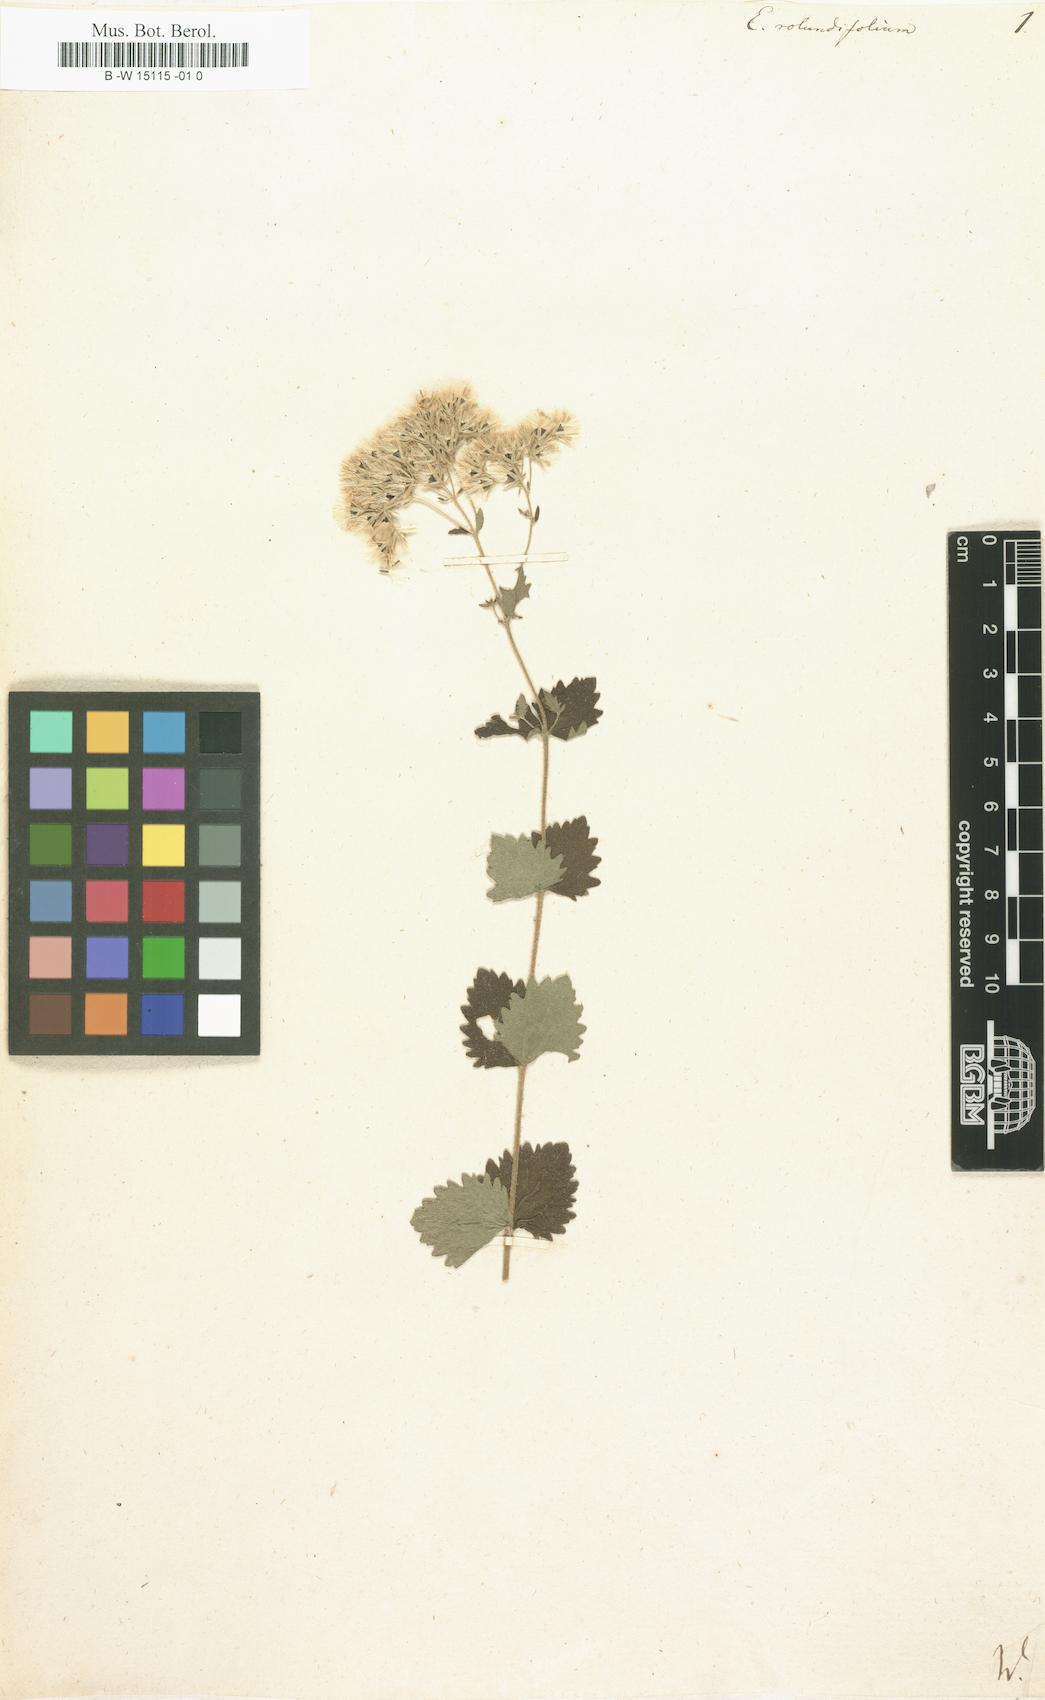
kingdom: Plantae
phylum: Tracheophyta
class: Magnoliopsida
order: Asterales
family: Asteraceae
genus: Eupatorium
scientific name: Eupatorium rotundifolium
